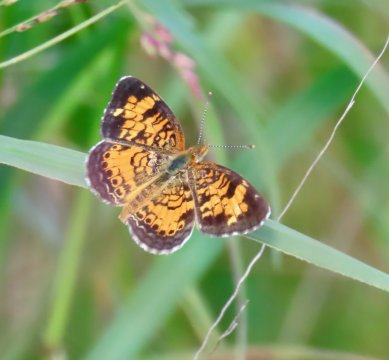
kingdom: Animalia
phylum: Arthropoda
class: Insecta
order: Lepidoptera
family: Nymphalidae
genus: Phyciodes
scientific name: Phyciodes tharos
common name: Pearl Crescent
